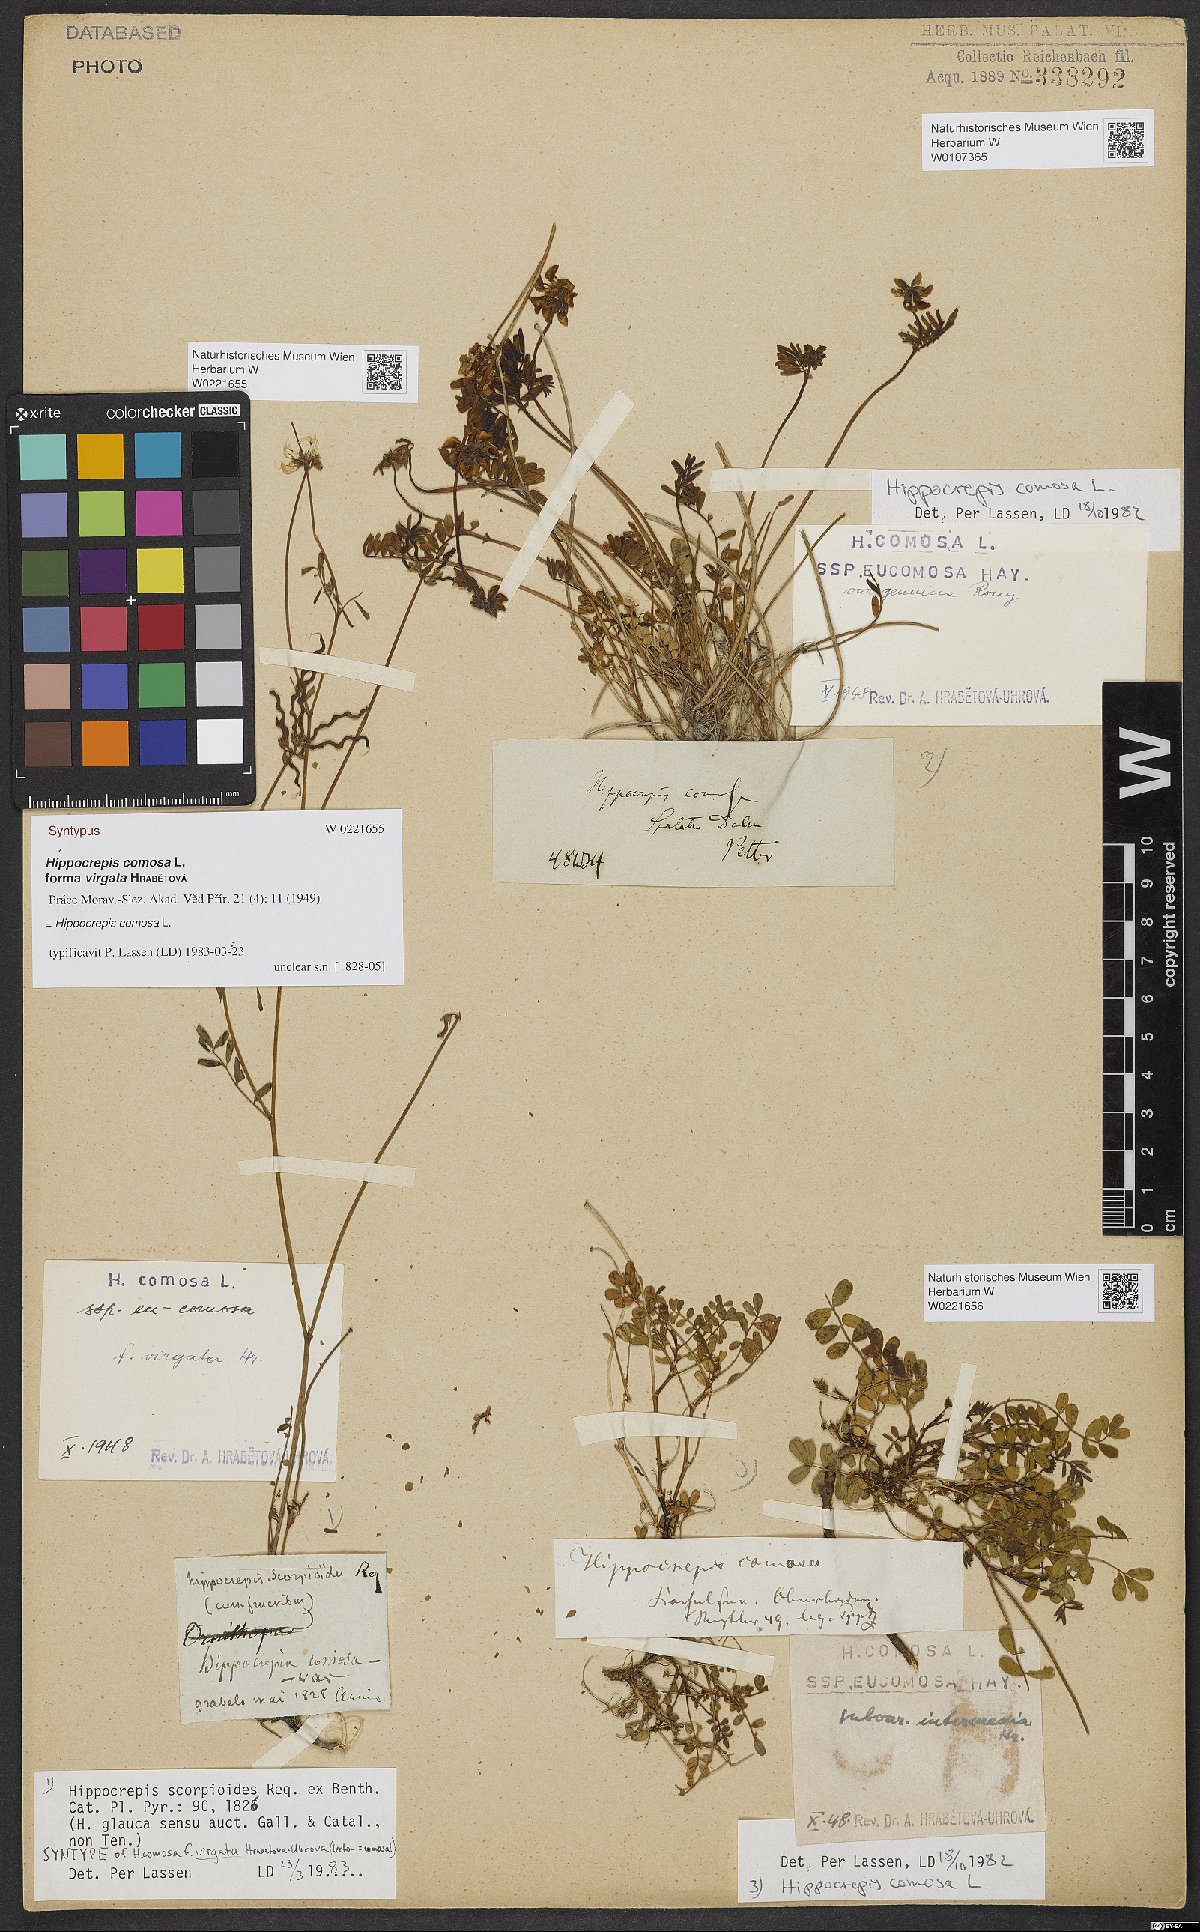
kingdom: Plantae
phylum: Tracheophyta
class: Magnoliopsida
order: Fabales
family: Fabaceae
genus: Hippocrepis
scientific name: Hippocrepis comosa
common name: Horseshoe vetch
